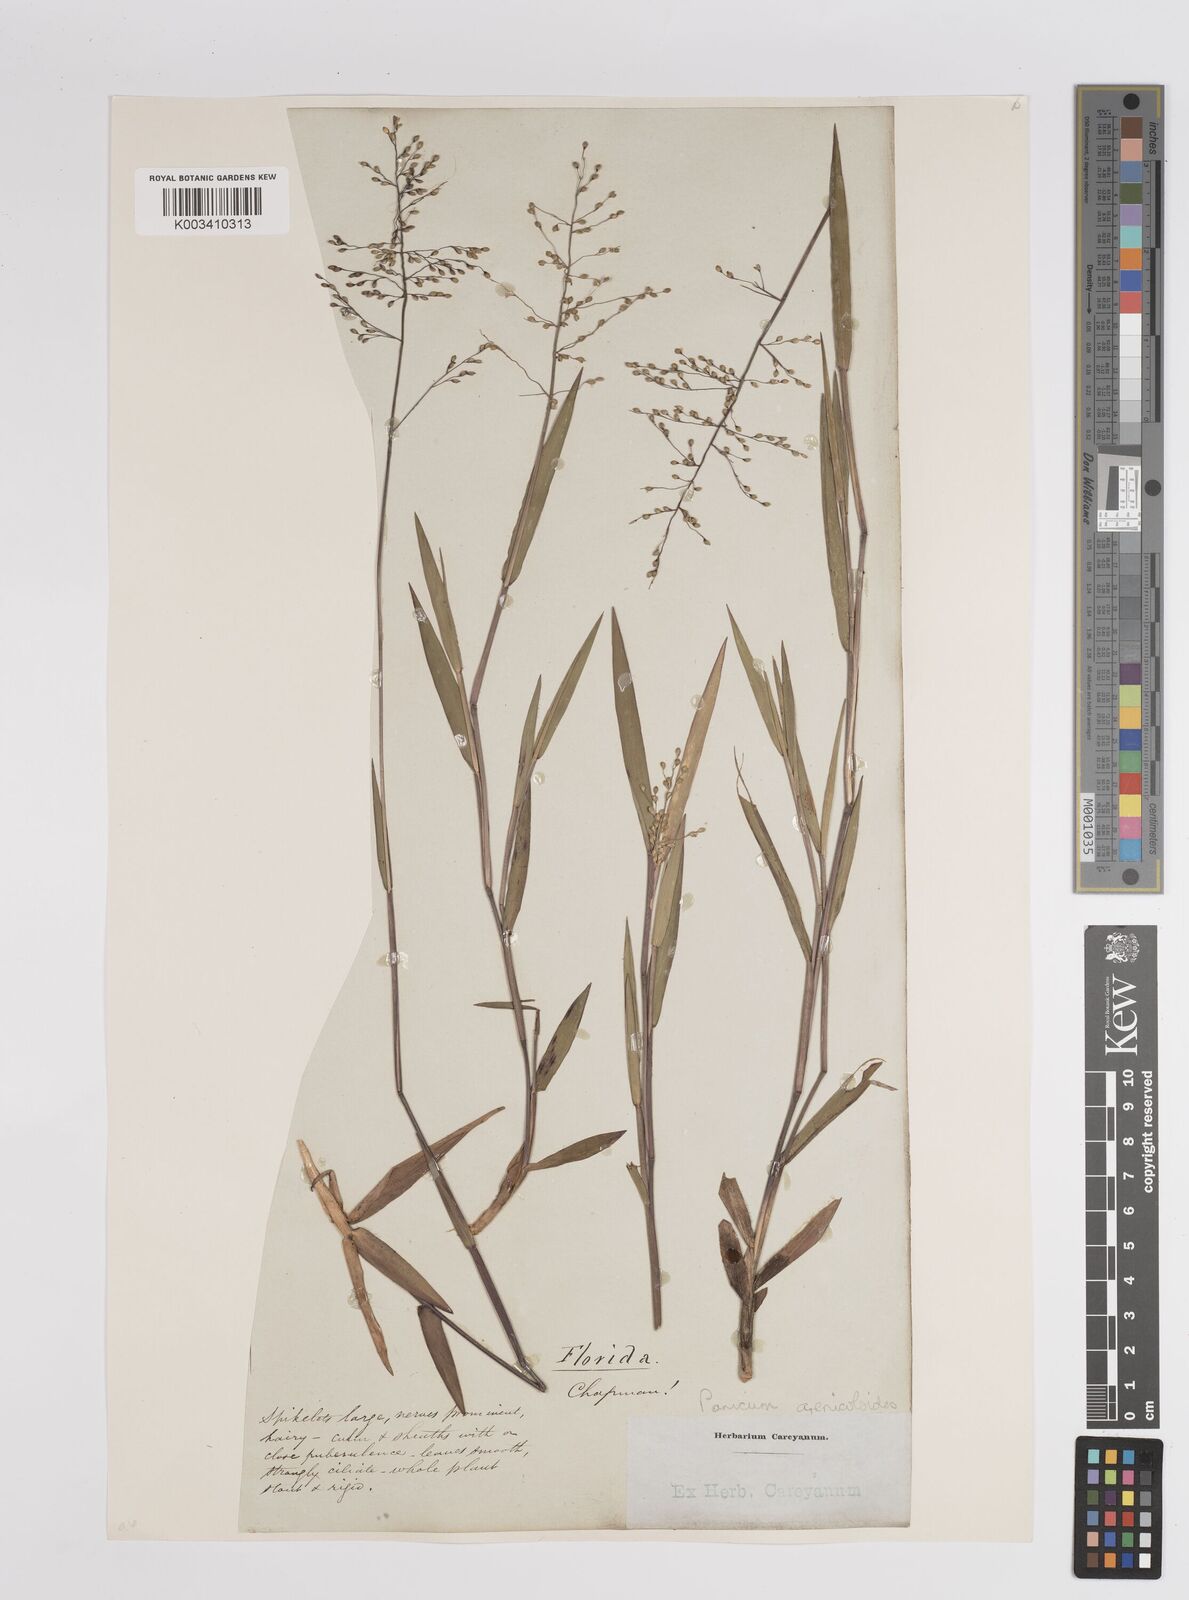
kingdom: Plantae
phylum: Tracheophyta
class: Liliopsida
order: Poales
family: Poaceae
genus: Dichanthelium
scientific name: Dichanthelium aciculare
